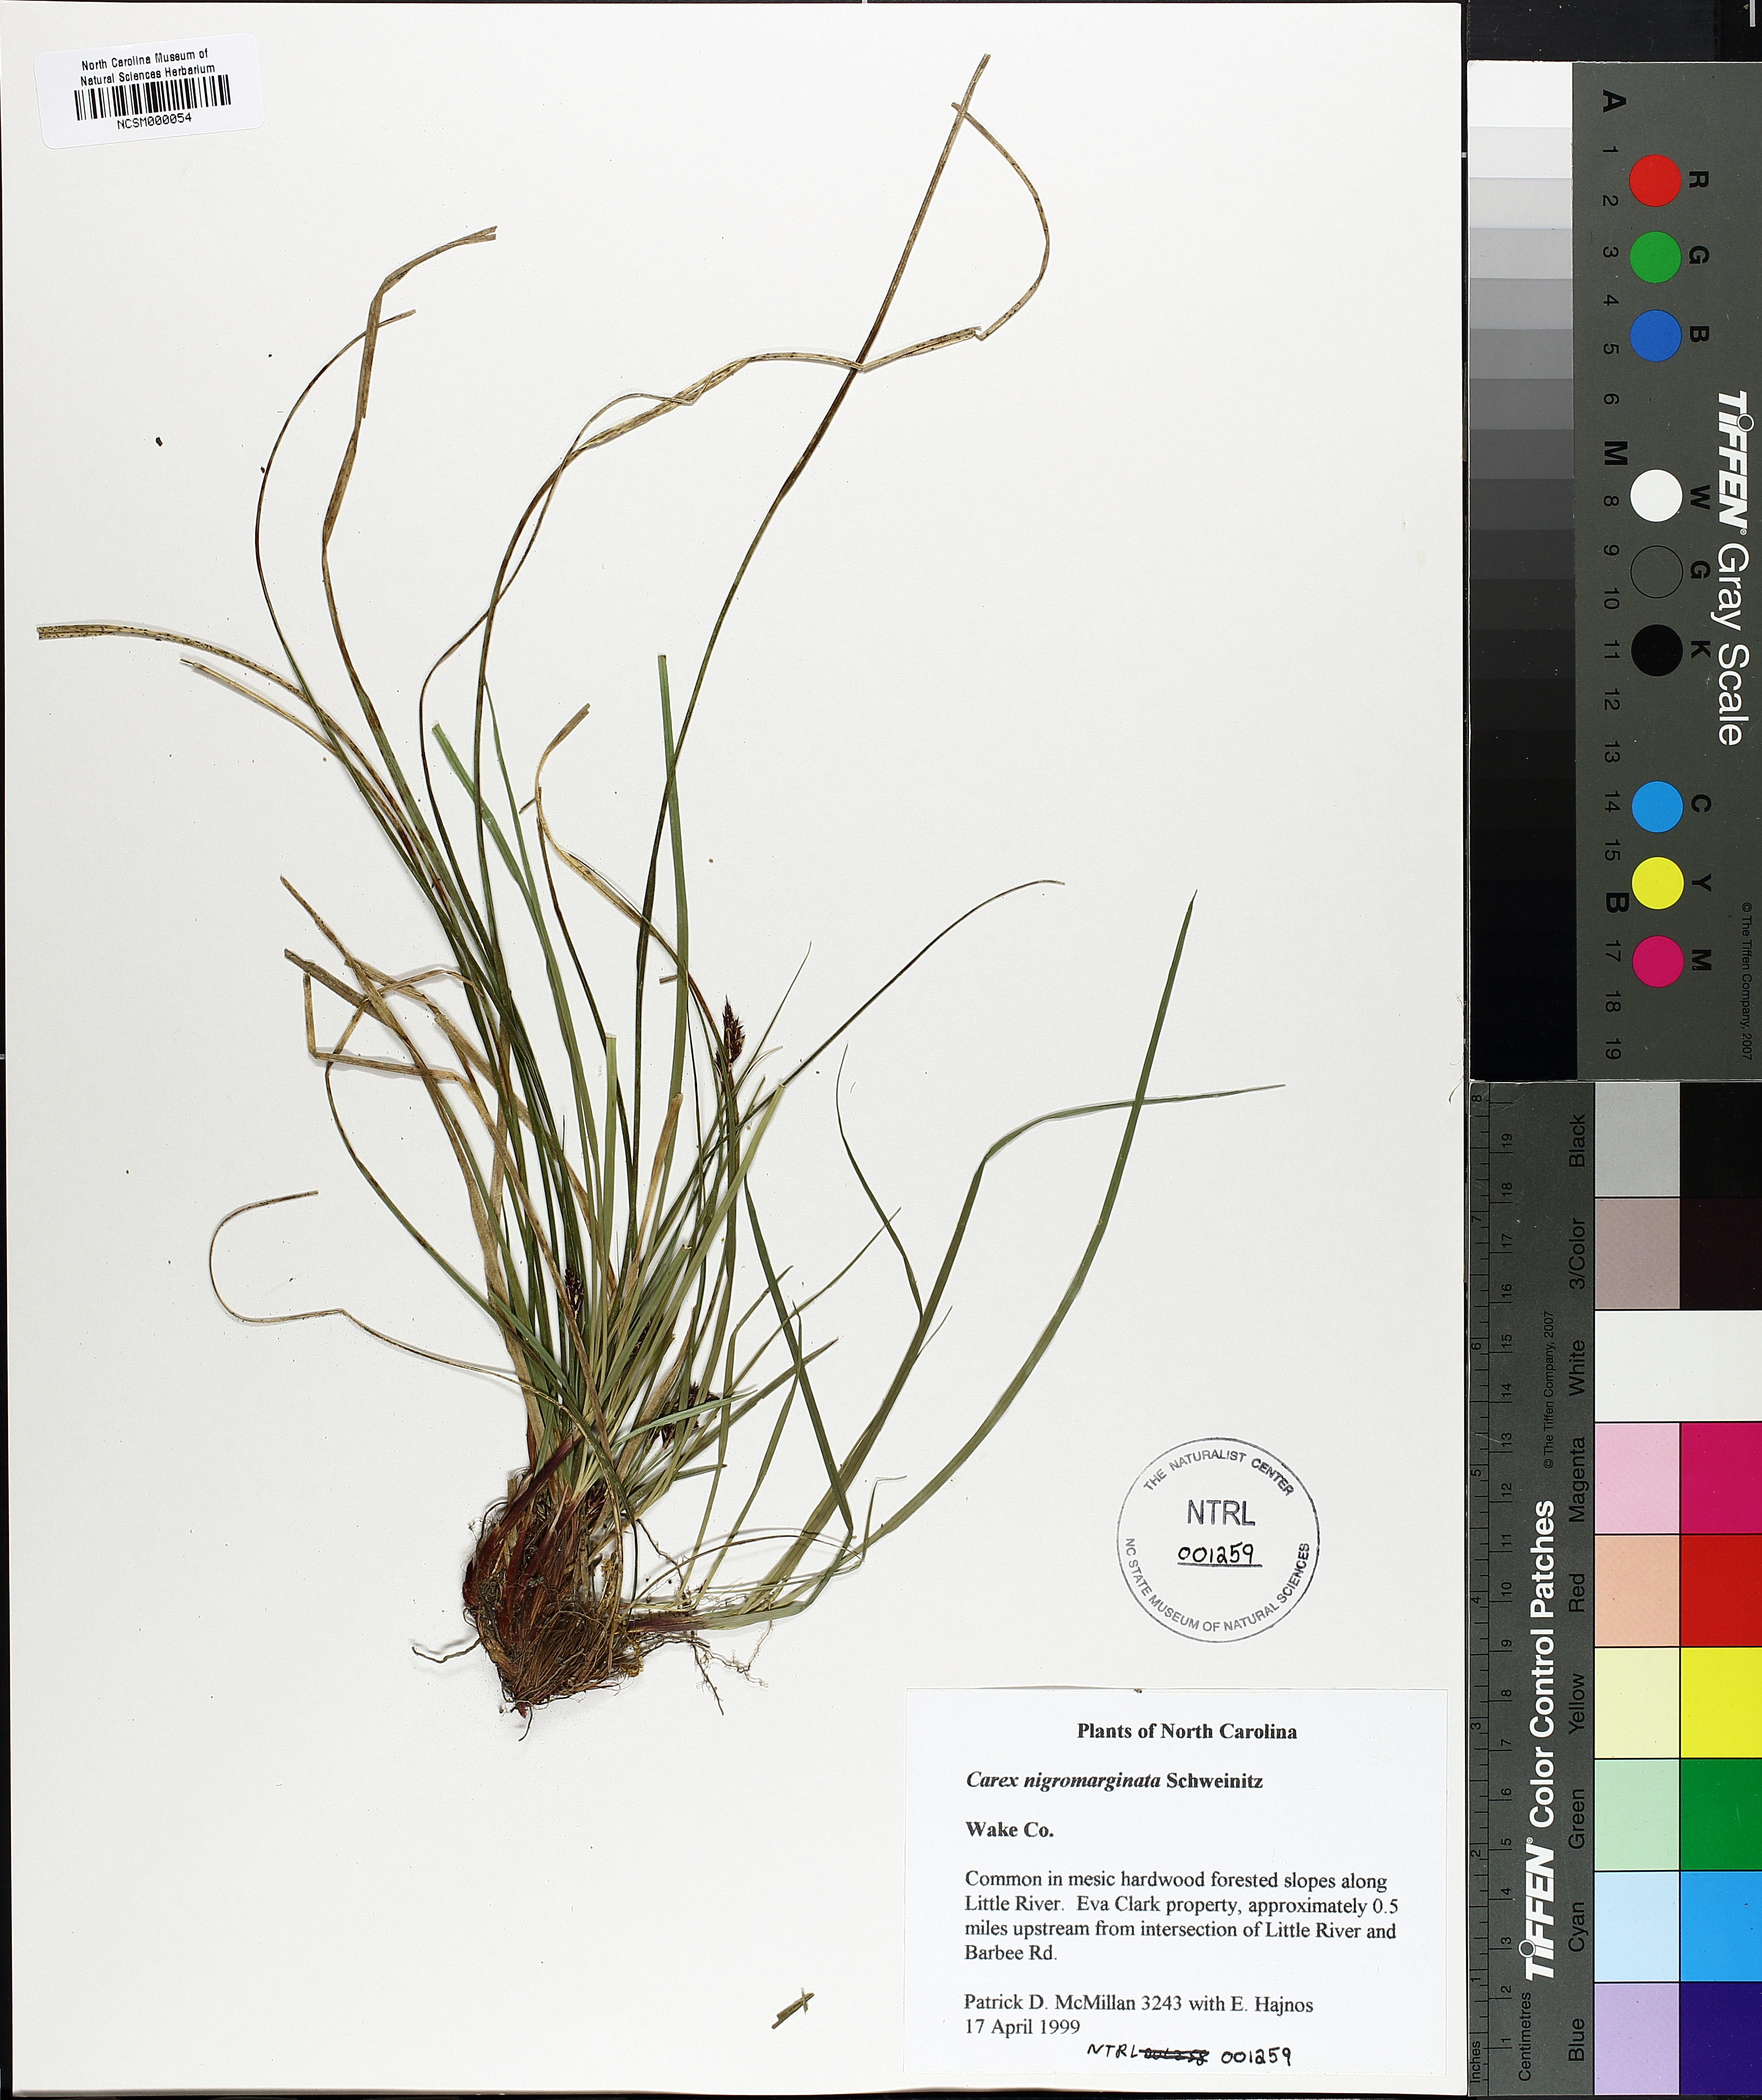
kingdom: Plantae
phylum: Tracheophyta
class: Liliopsida
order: Poales
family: Cyperaceae
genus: Carex
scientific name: Carex nigromarginata
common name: Black-edged sedge
